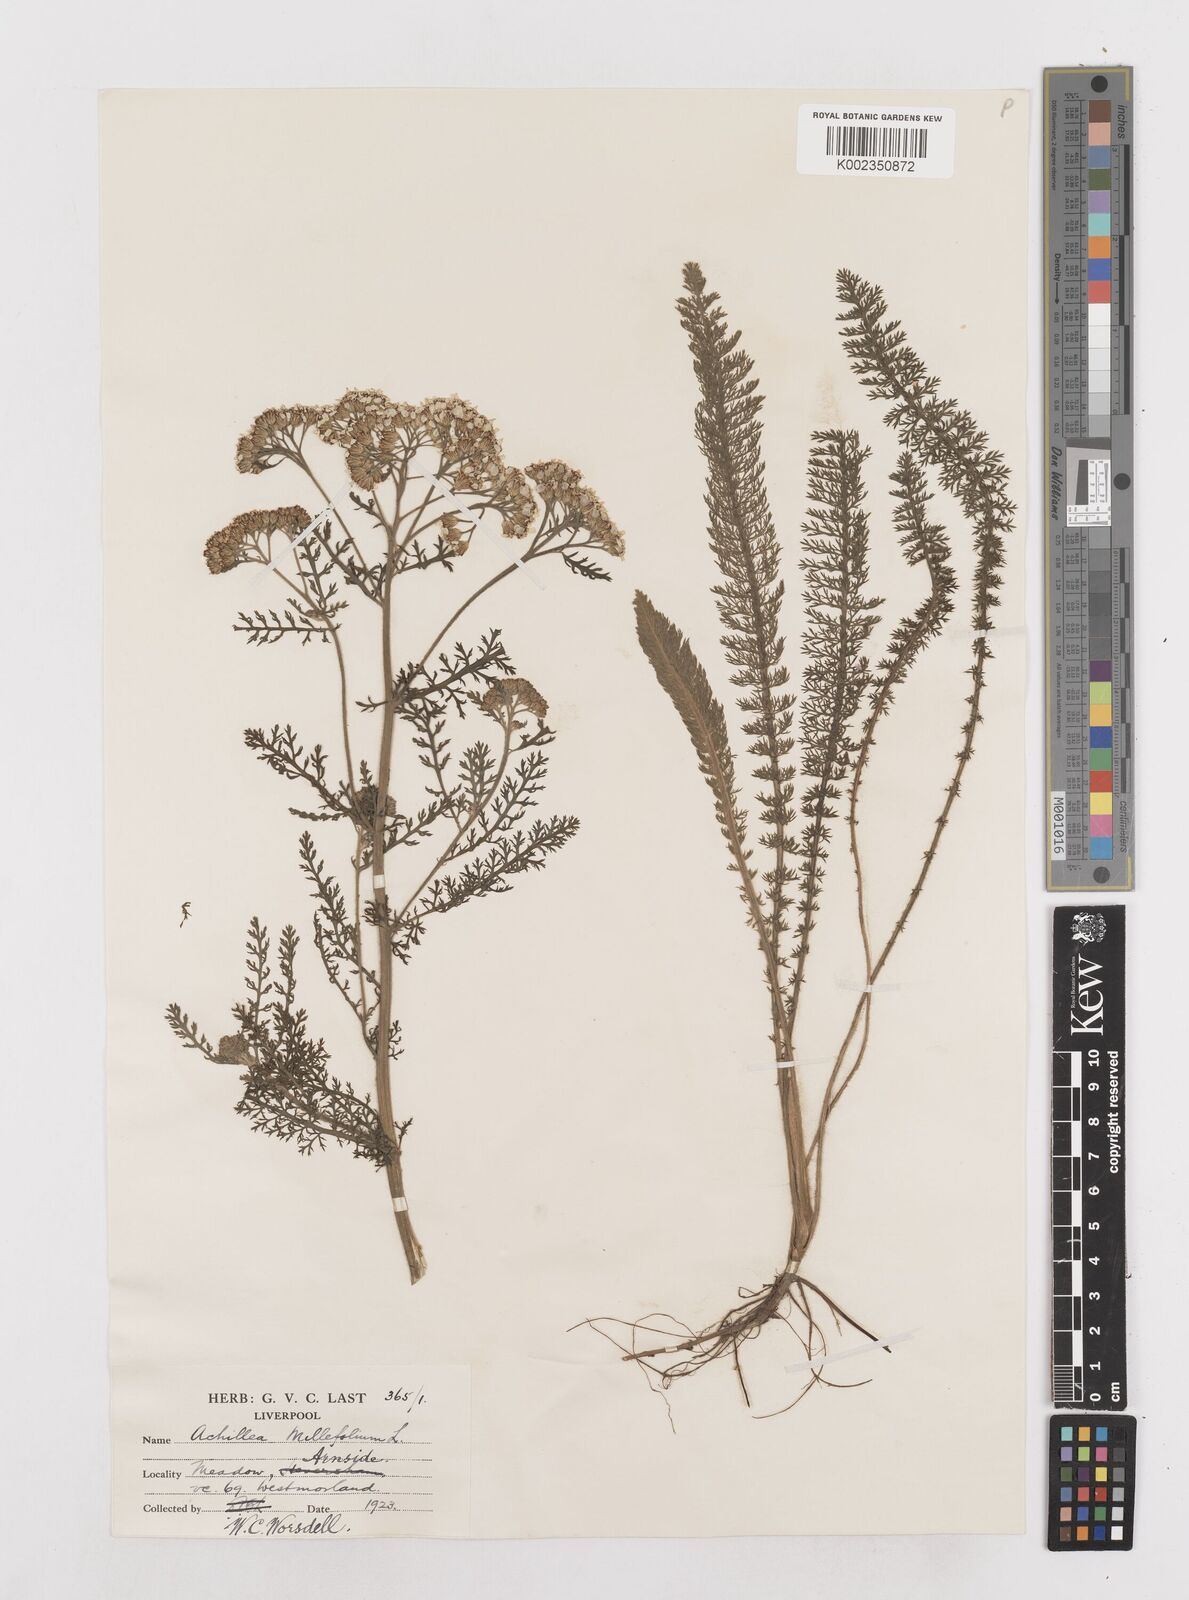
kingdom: Plantae
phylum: Tracheophyta
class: Magnoliopsida
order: Asterales
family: Asteraceae
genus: Achillea
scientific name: Achillea millefolium
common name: Yarrow
